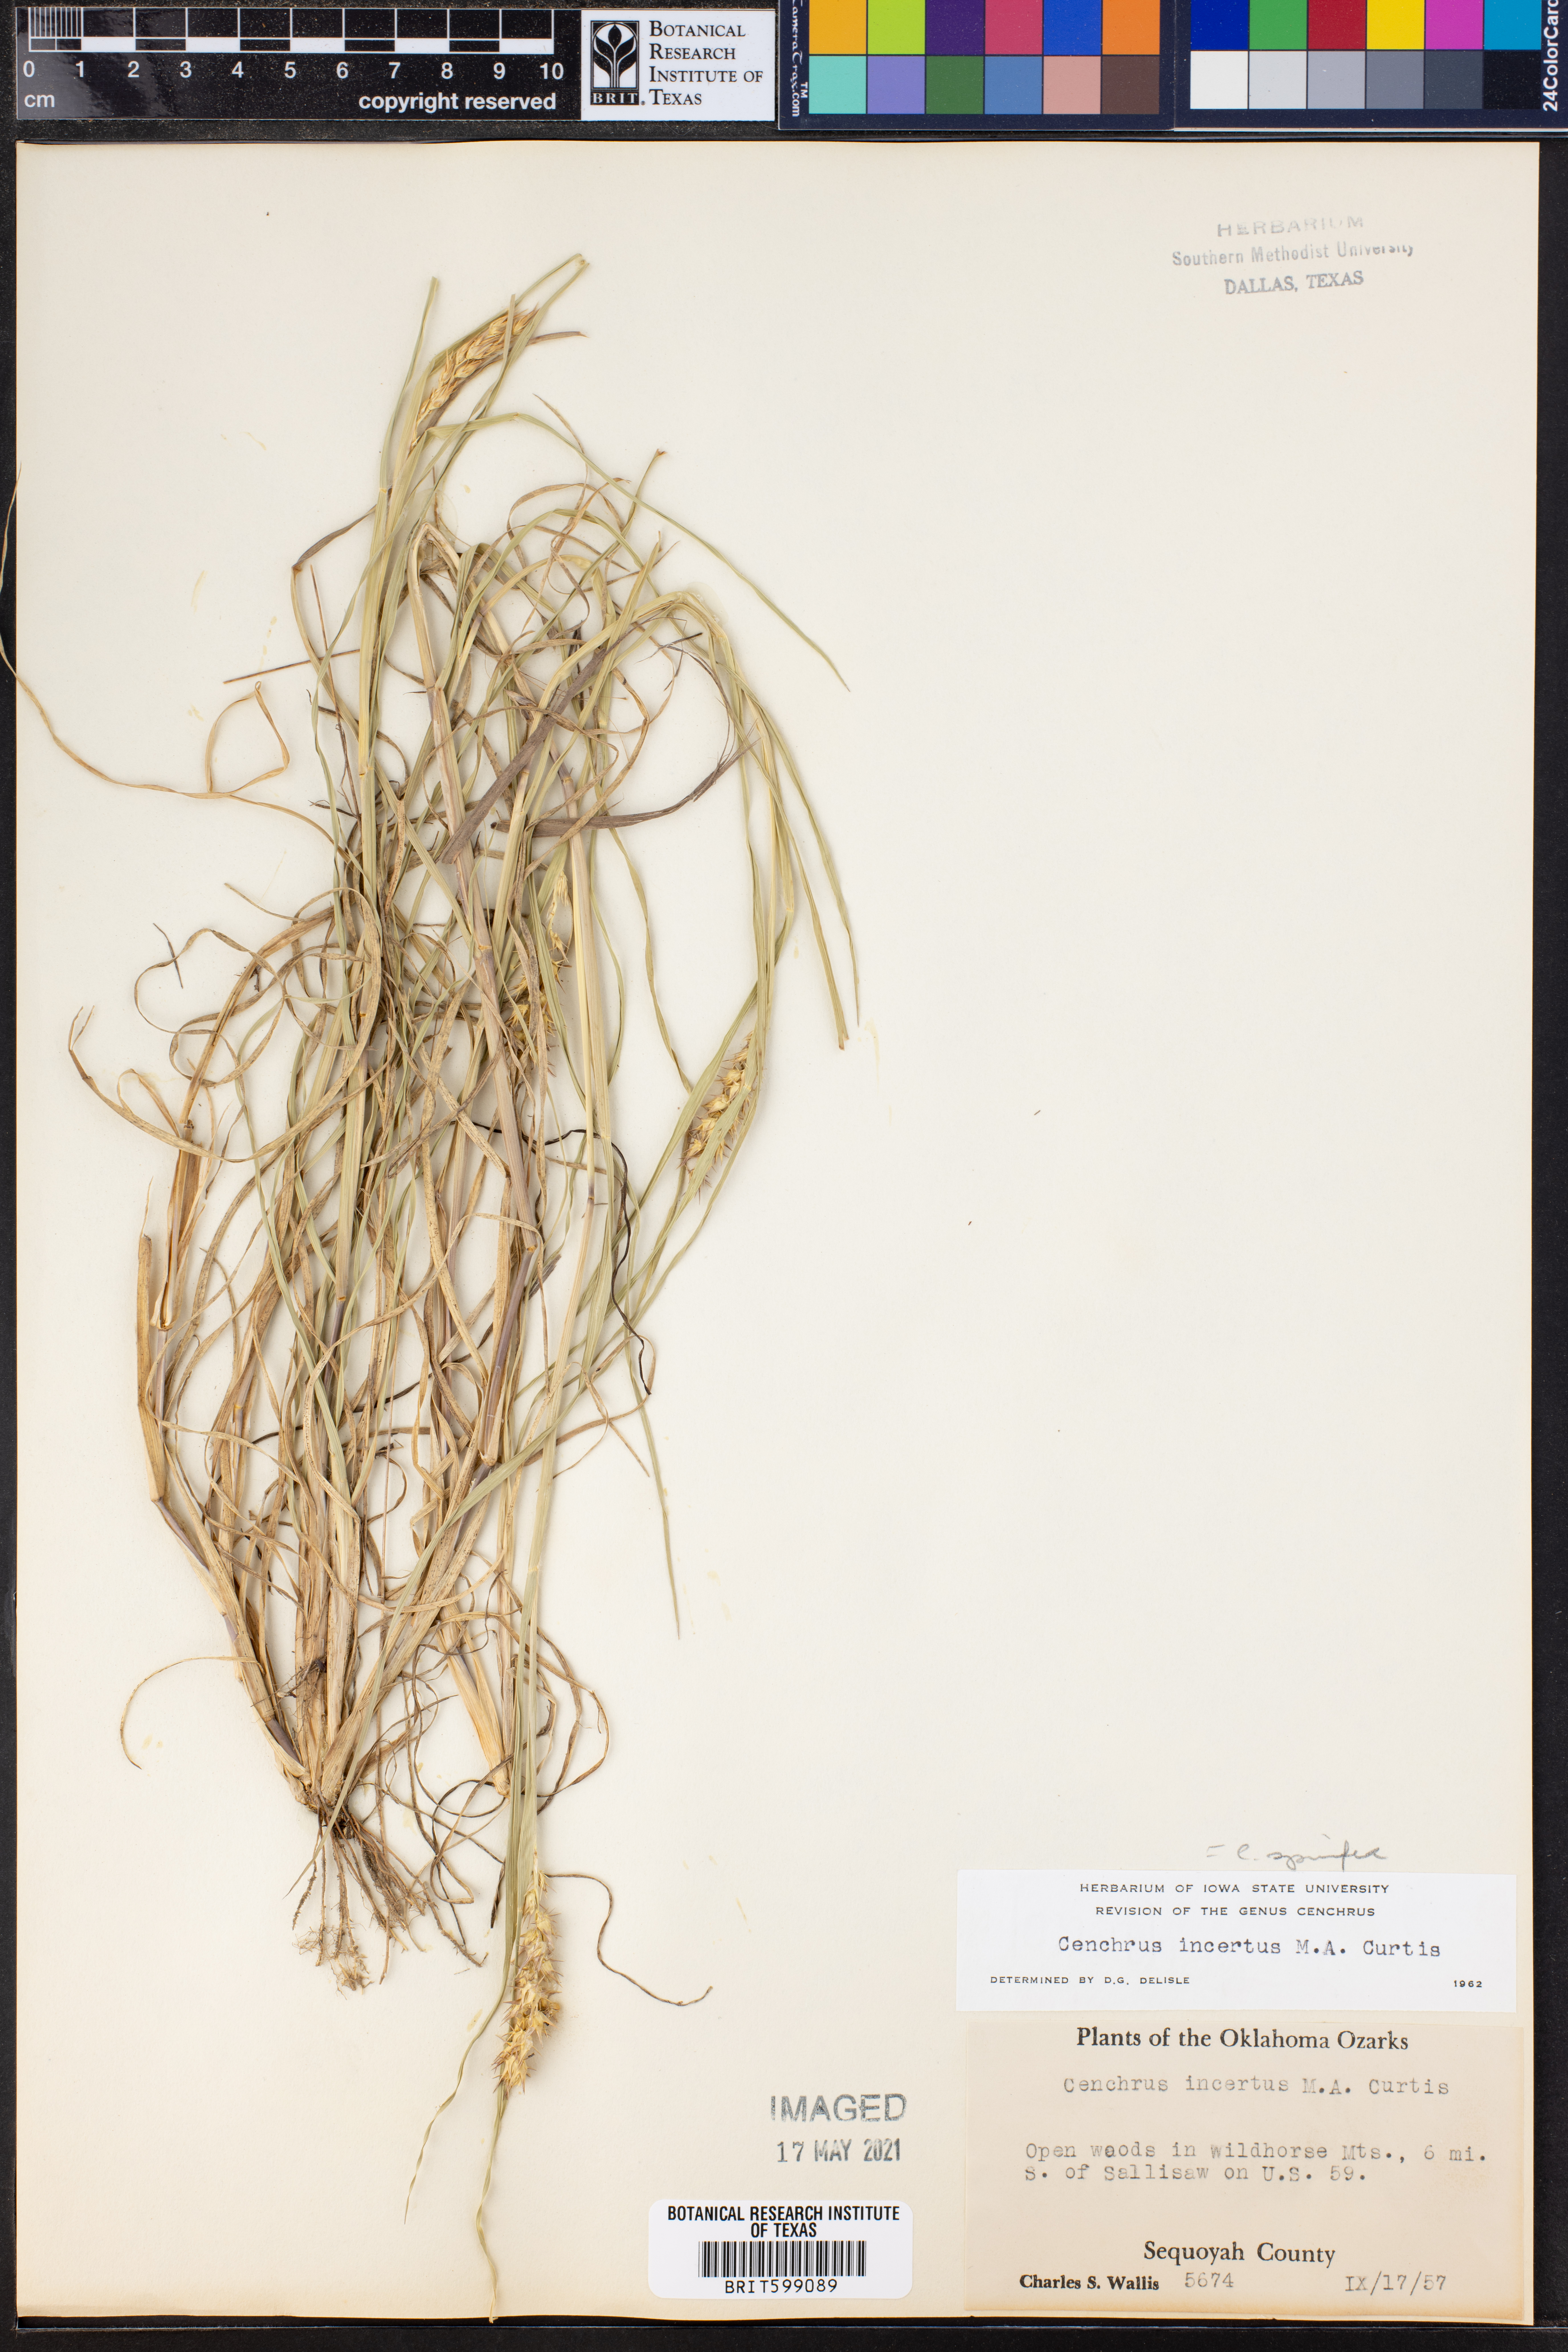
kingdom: Plantae
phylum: Tracheophyta
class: Liliopsida
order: Poales
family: Poaceae
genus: Cenchrus
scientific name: Cenchrus spinifex
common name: Coast sandbur
